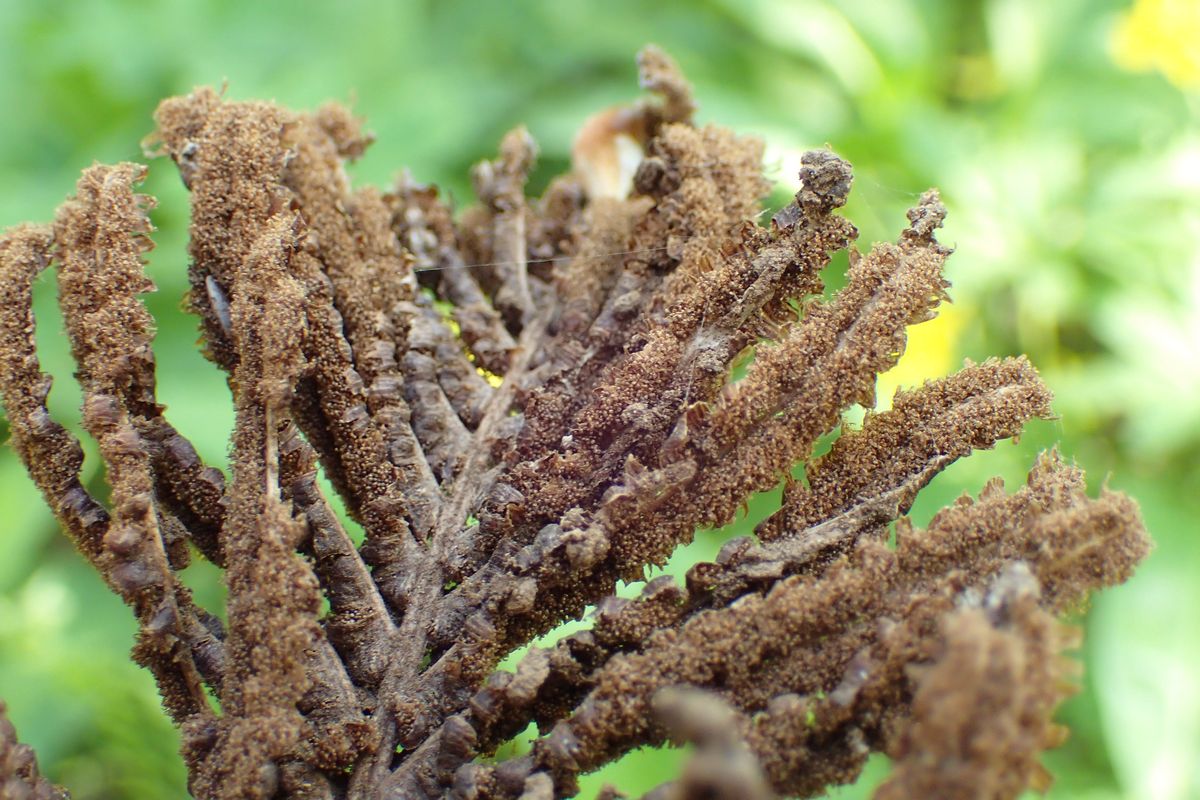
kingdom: Plantae
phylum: Tracheophyta
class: Polypodiopsida
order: Polypodiales
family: Onocleaceae
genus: Matteuccia
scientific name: Matteuccia struthiopteris
